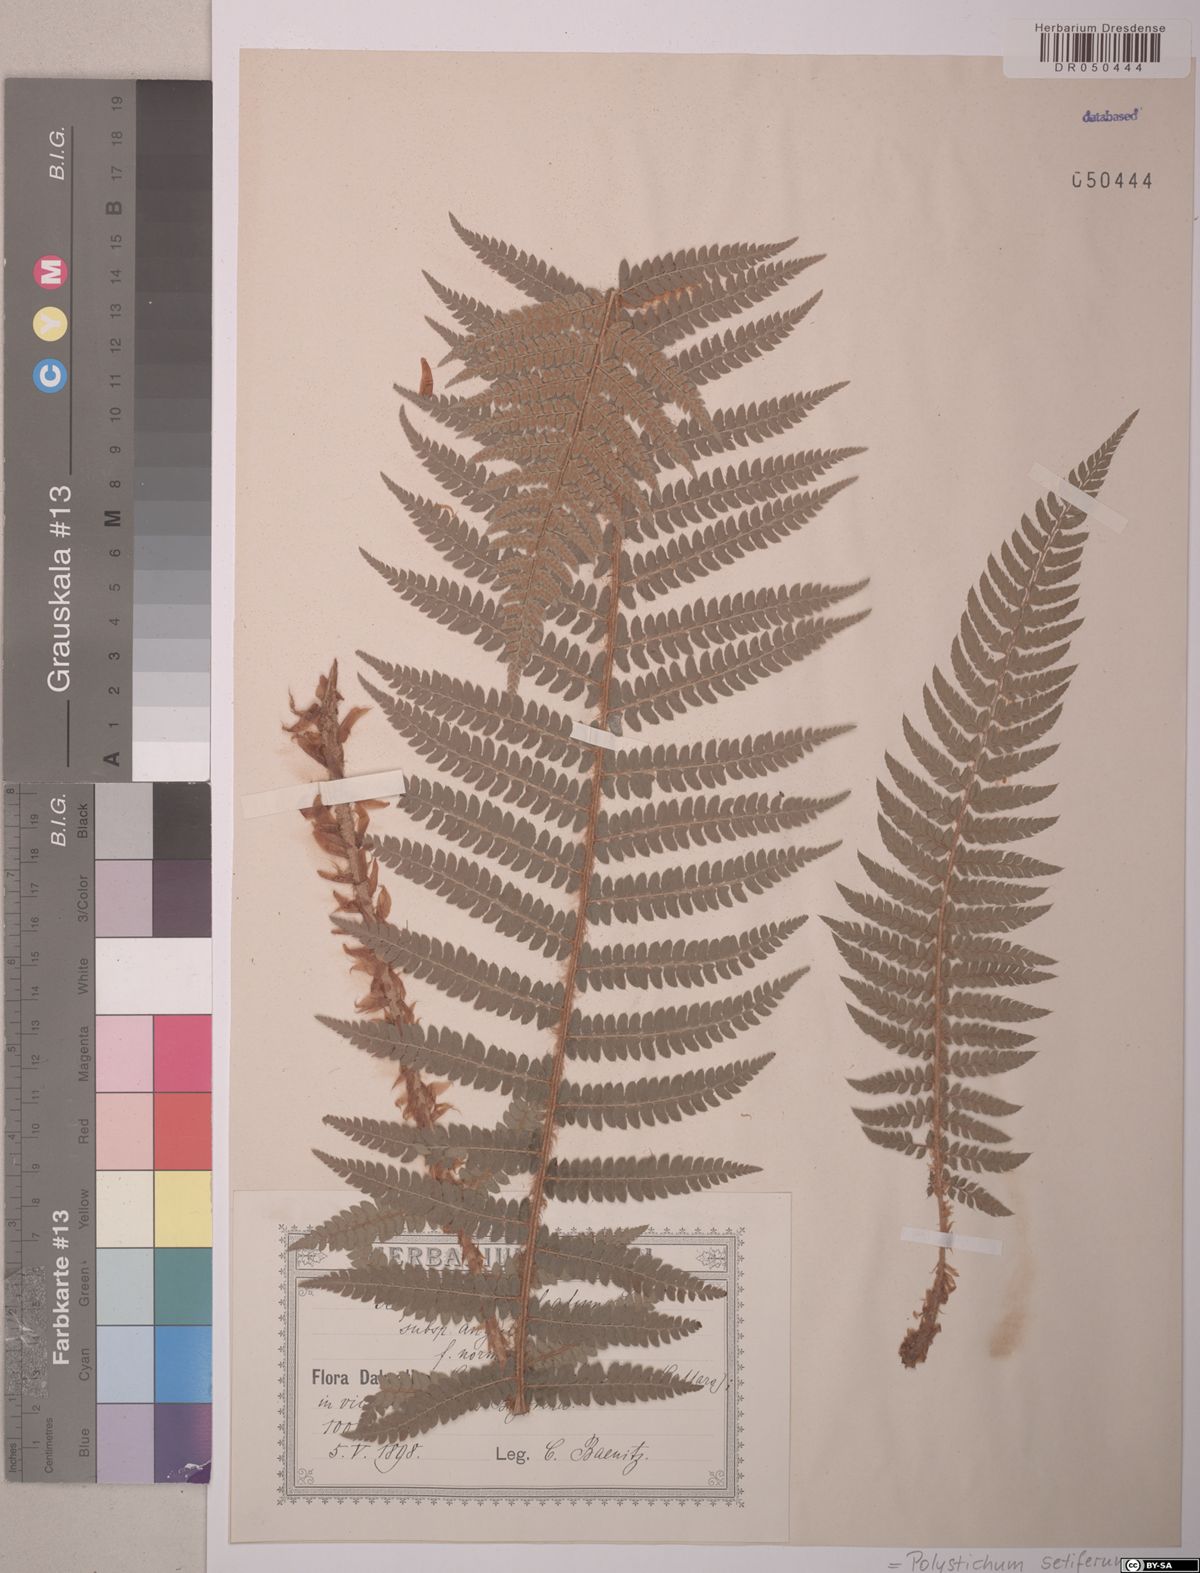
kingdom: Plantae
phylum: Tracheophyta
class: Polypodiopsida
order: Polypodiales
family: Dryopteridaceae
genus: Polystichum
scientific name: Polystichum setiferum
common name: Soft shield-fern
